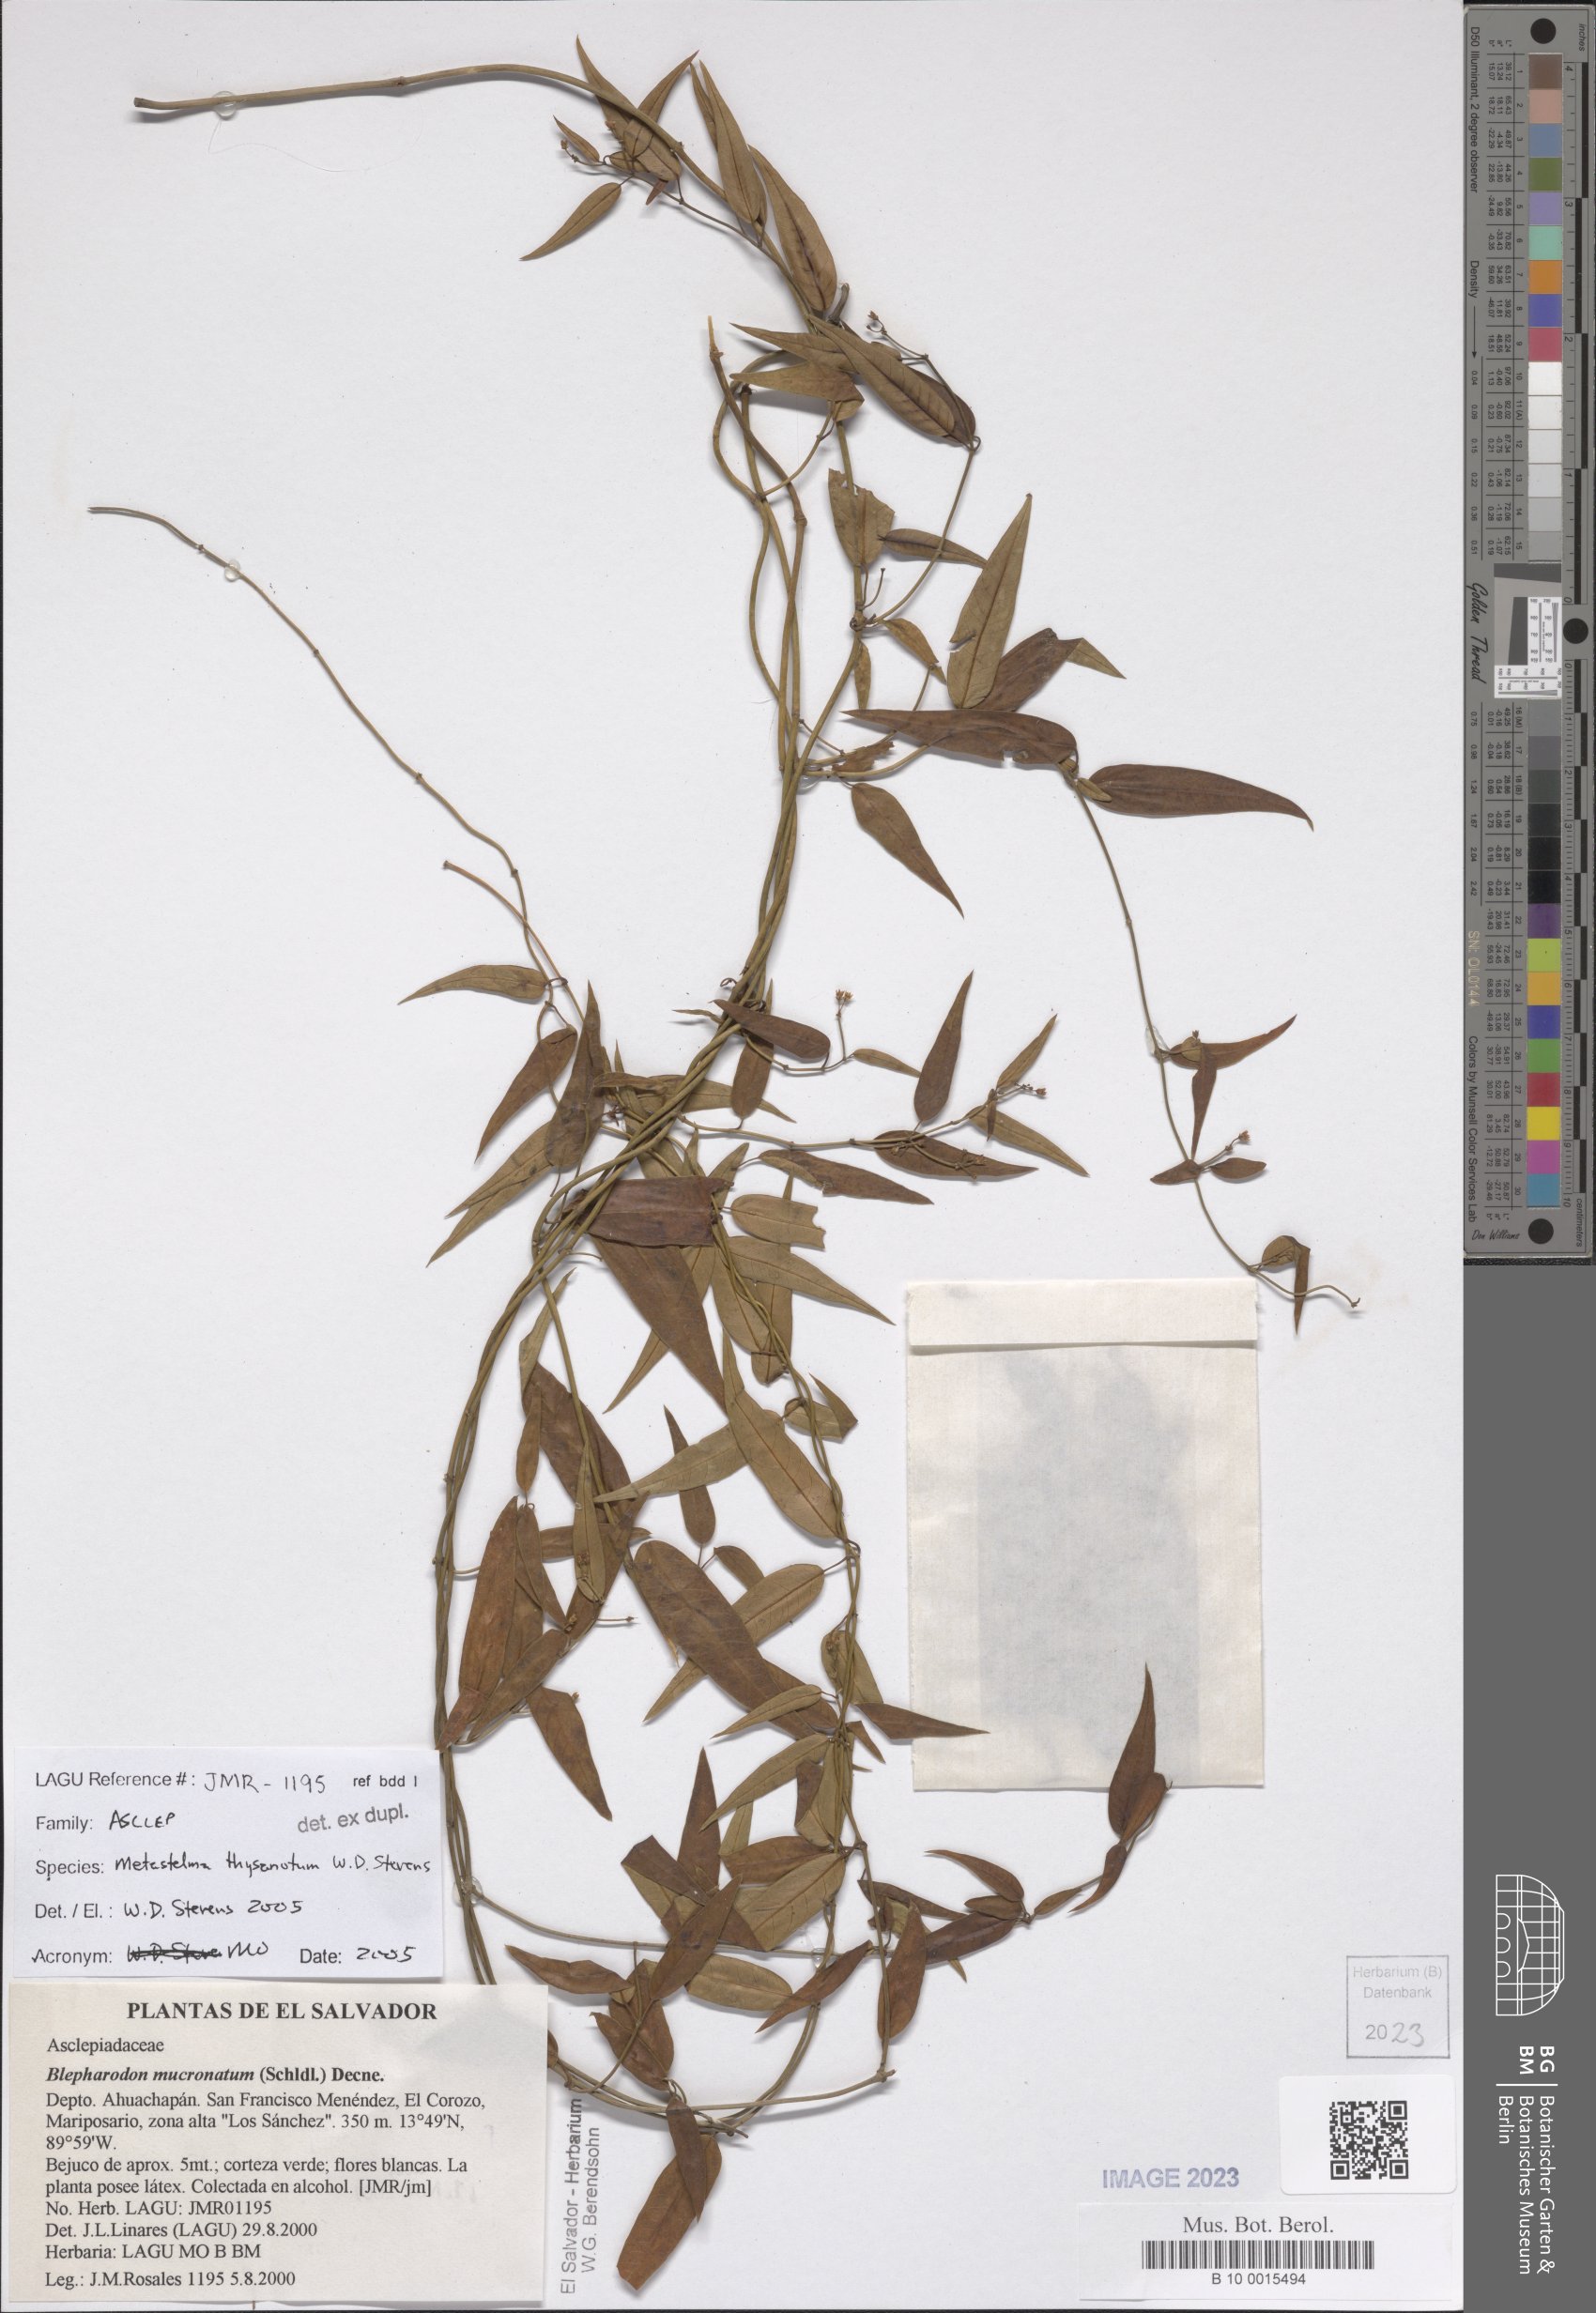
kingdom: Plantae
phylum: Tracheophyta
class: Magnoliopsida
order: Gentianales
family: Apocynaceae
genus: Metastelma
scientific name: Metastelma thysanotum
